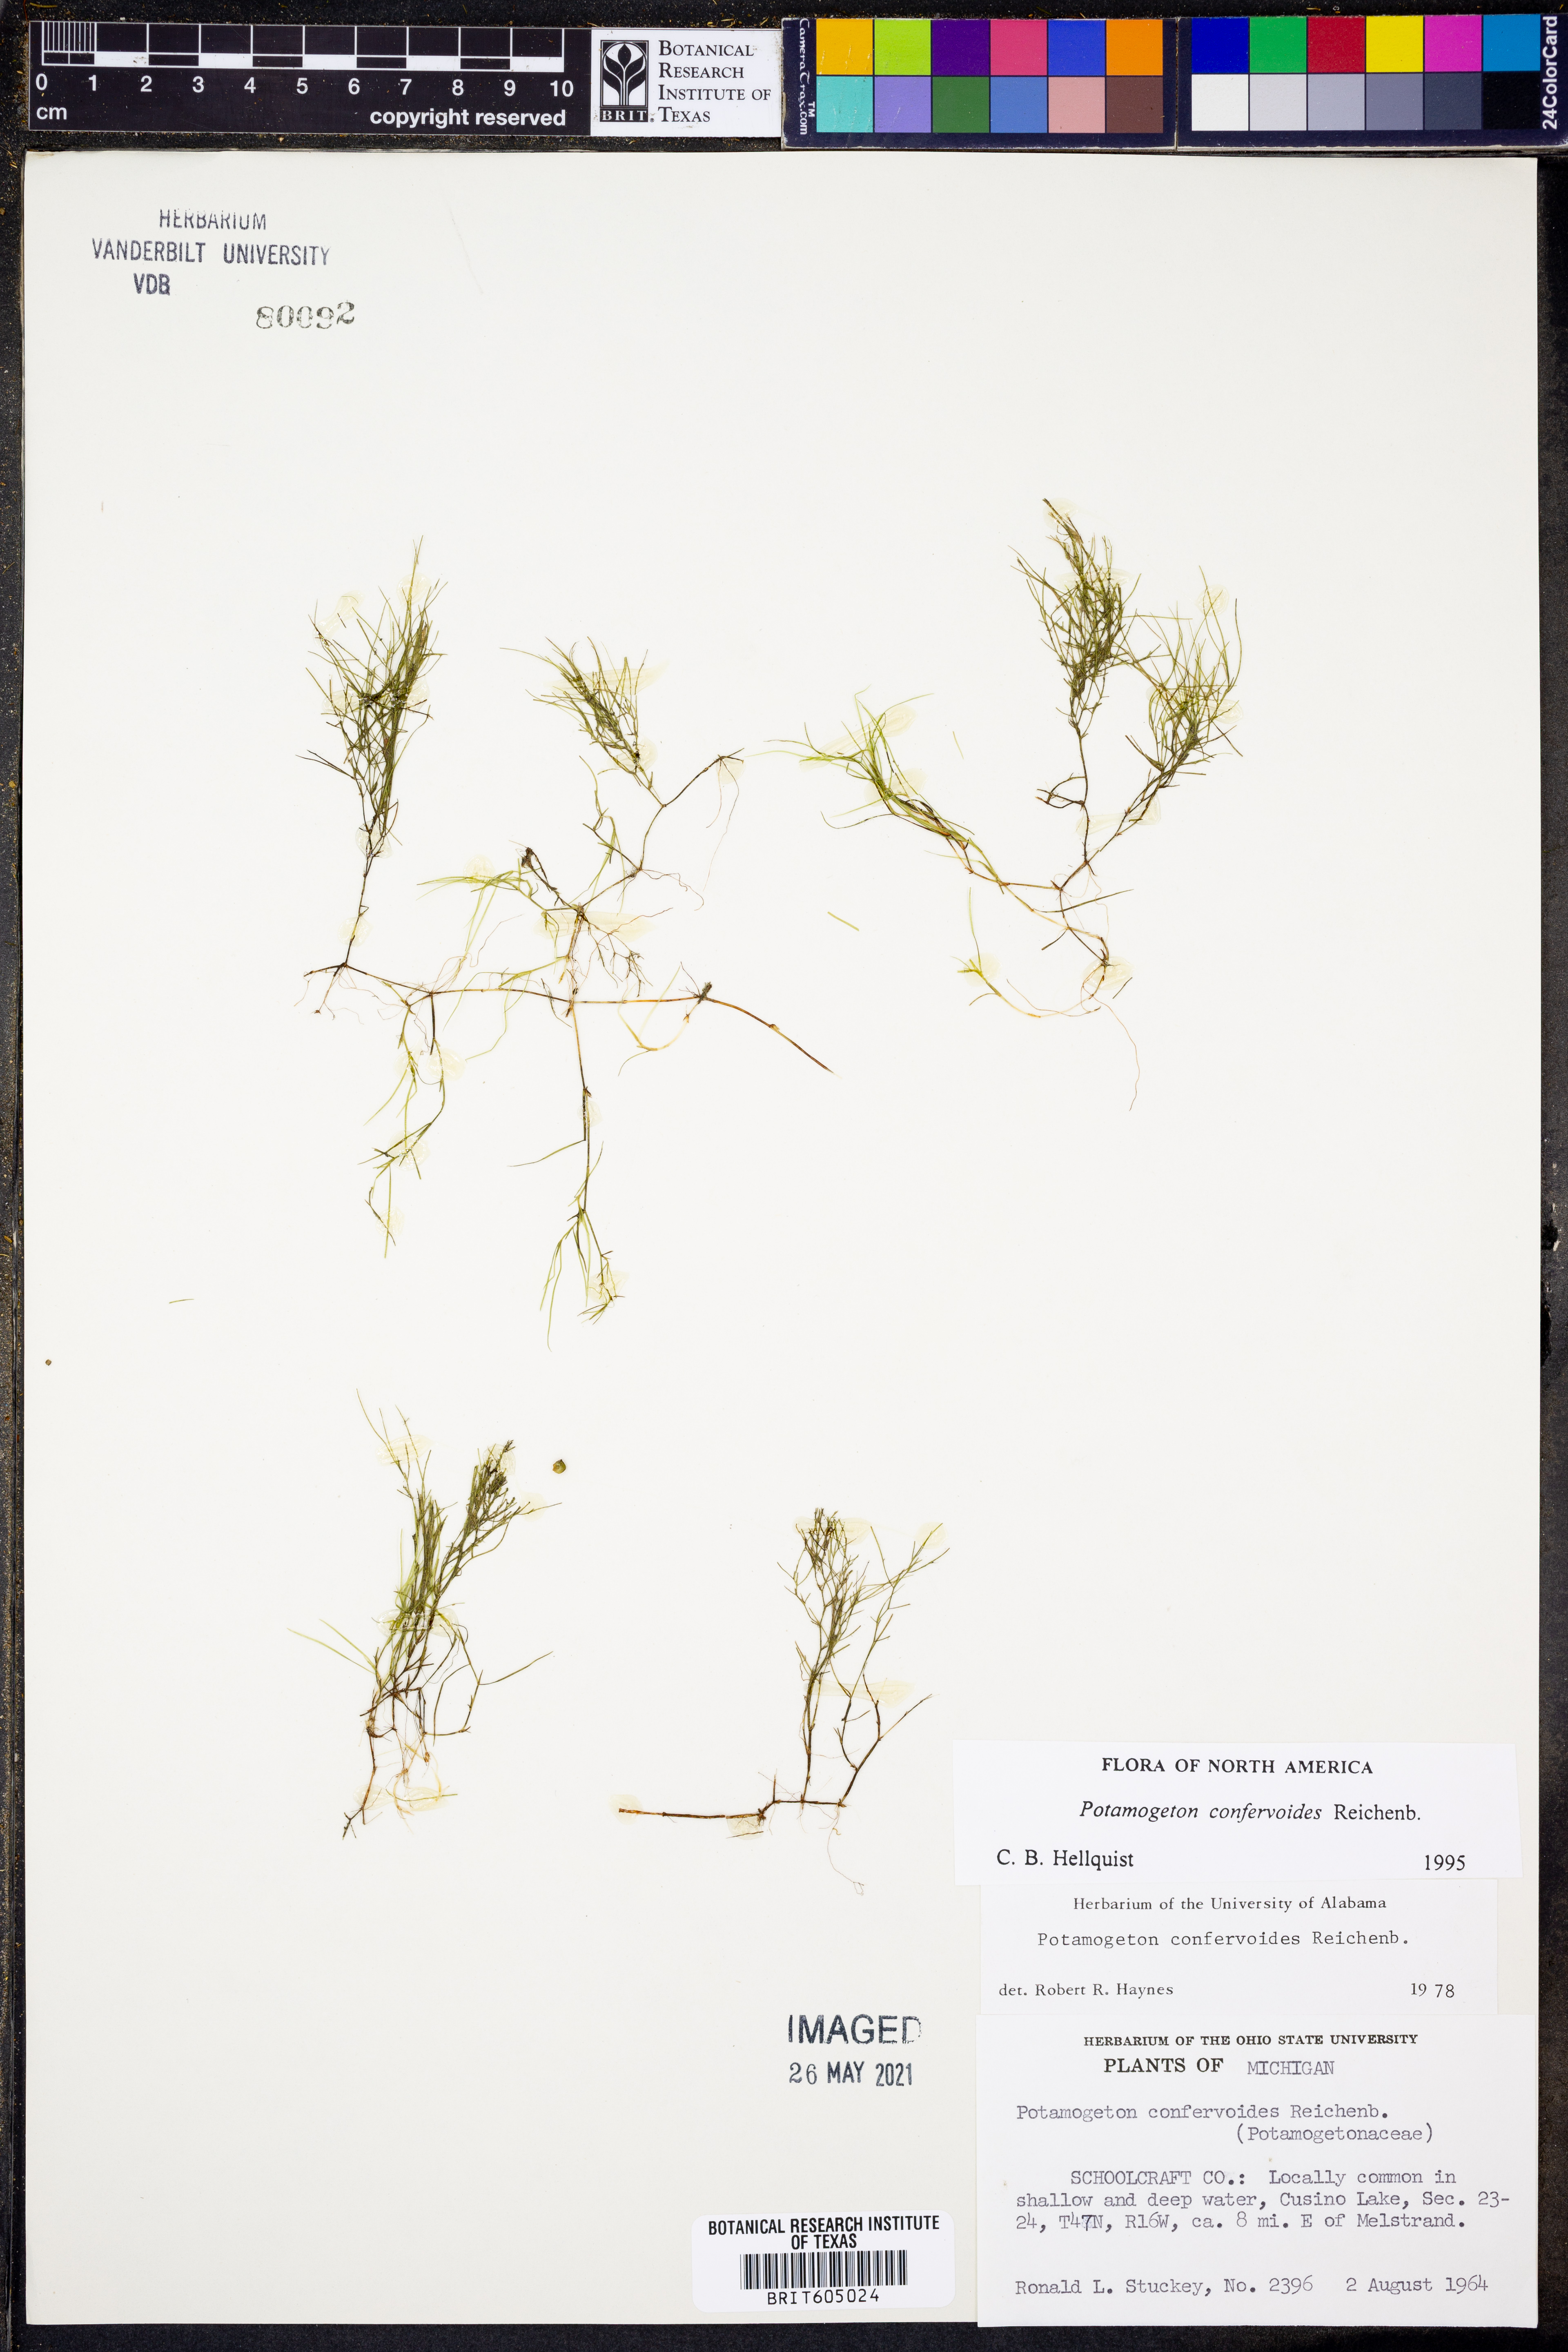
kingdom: Plantae
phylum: Tracheophyta
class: Liliopsida
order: Alismatales
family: Potamogetonaceae
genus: Potamogeton
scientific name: Potamogeton confervoides
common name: Alga pondweed
